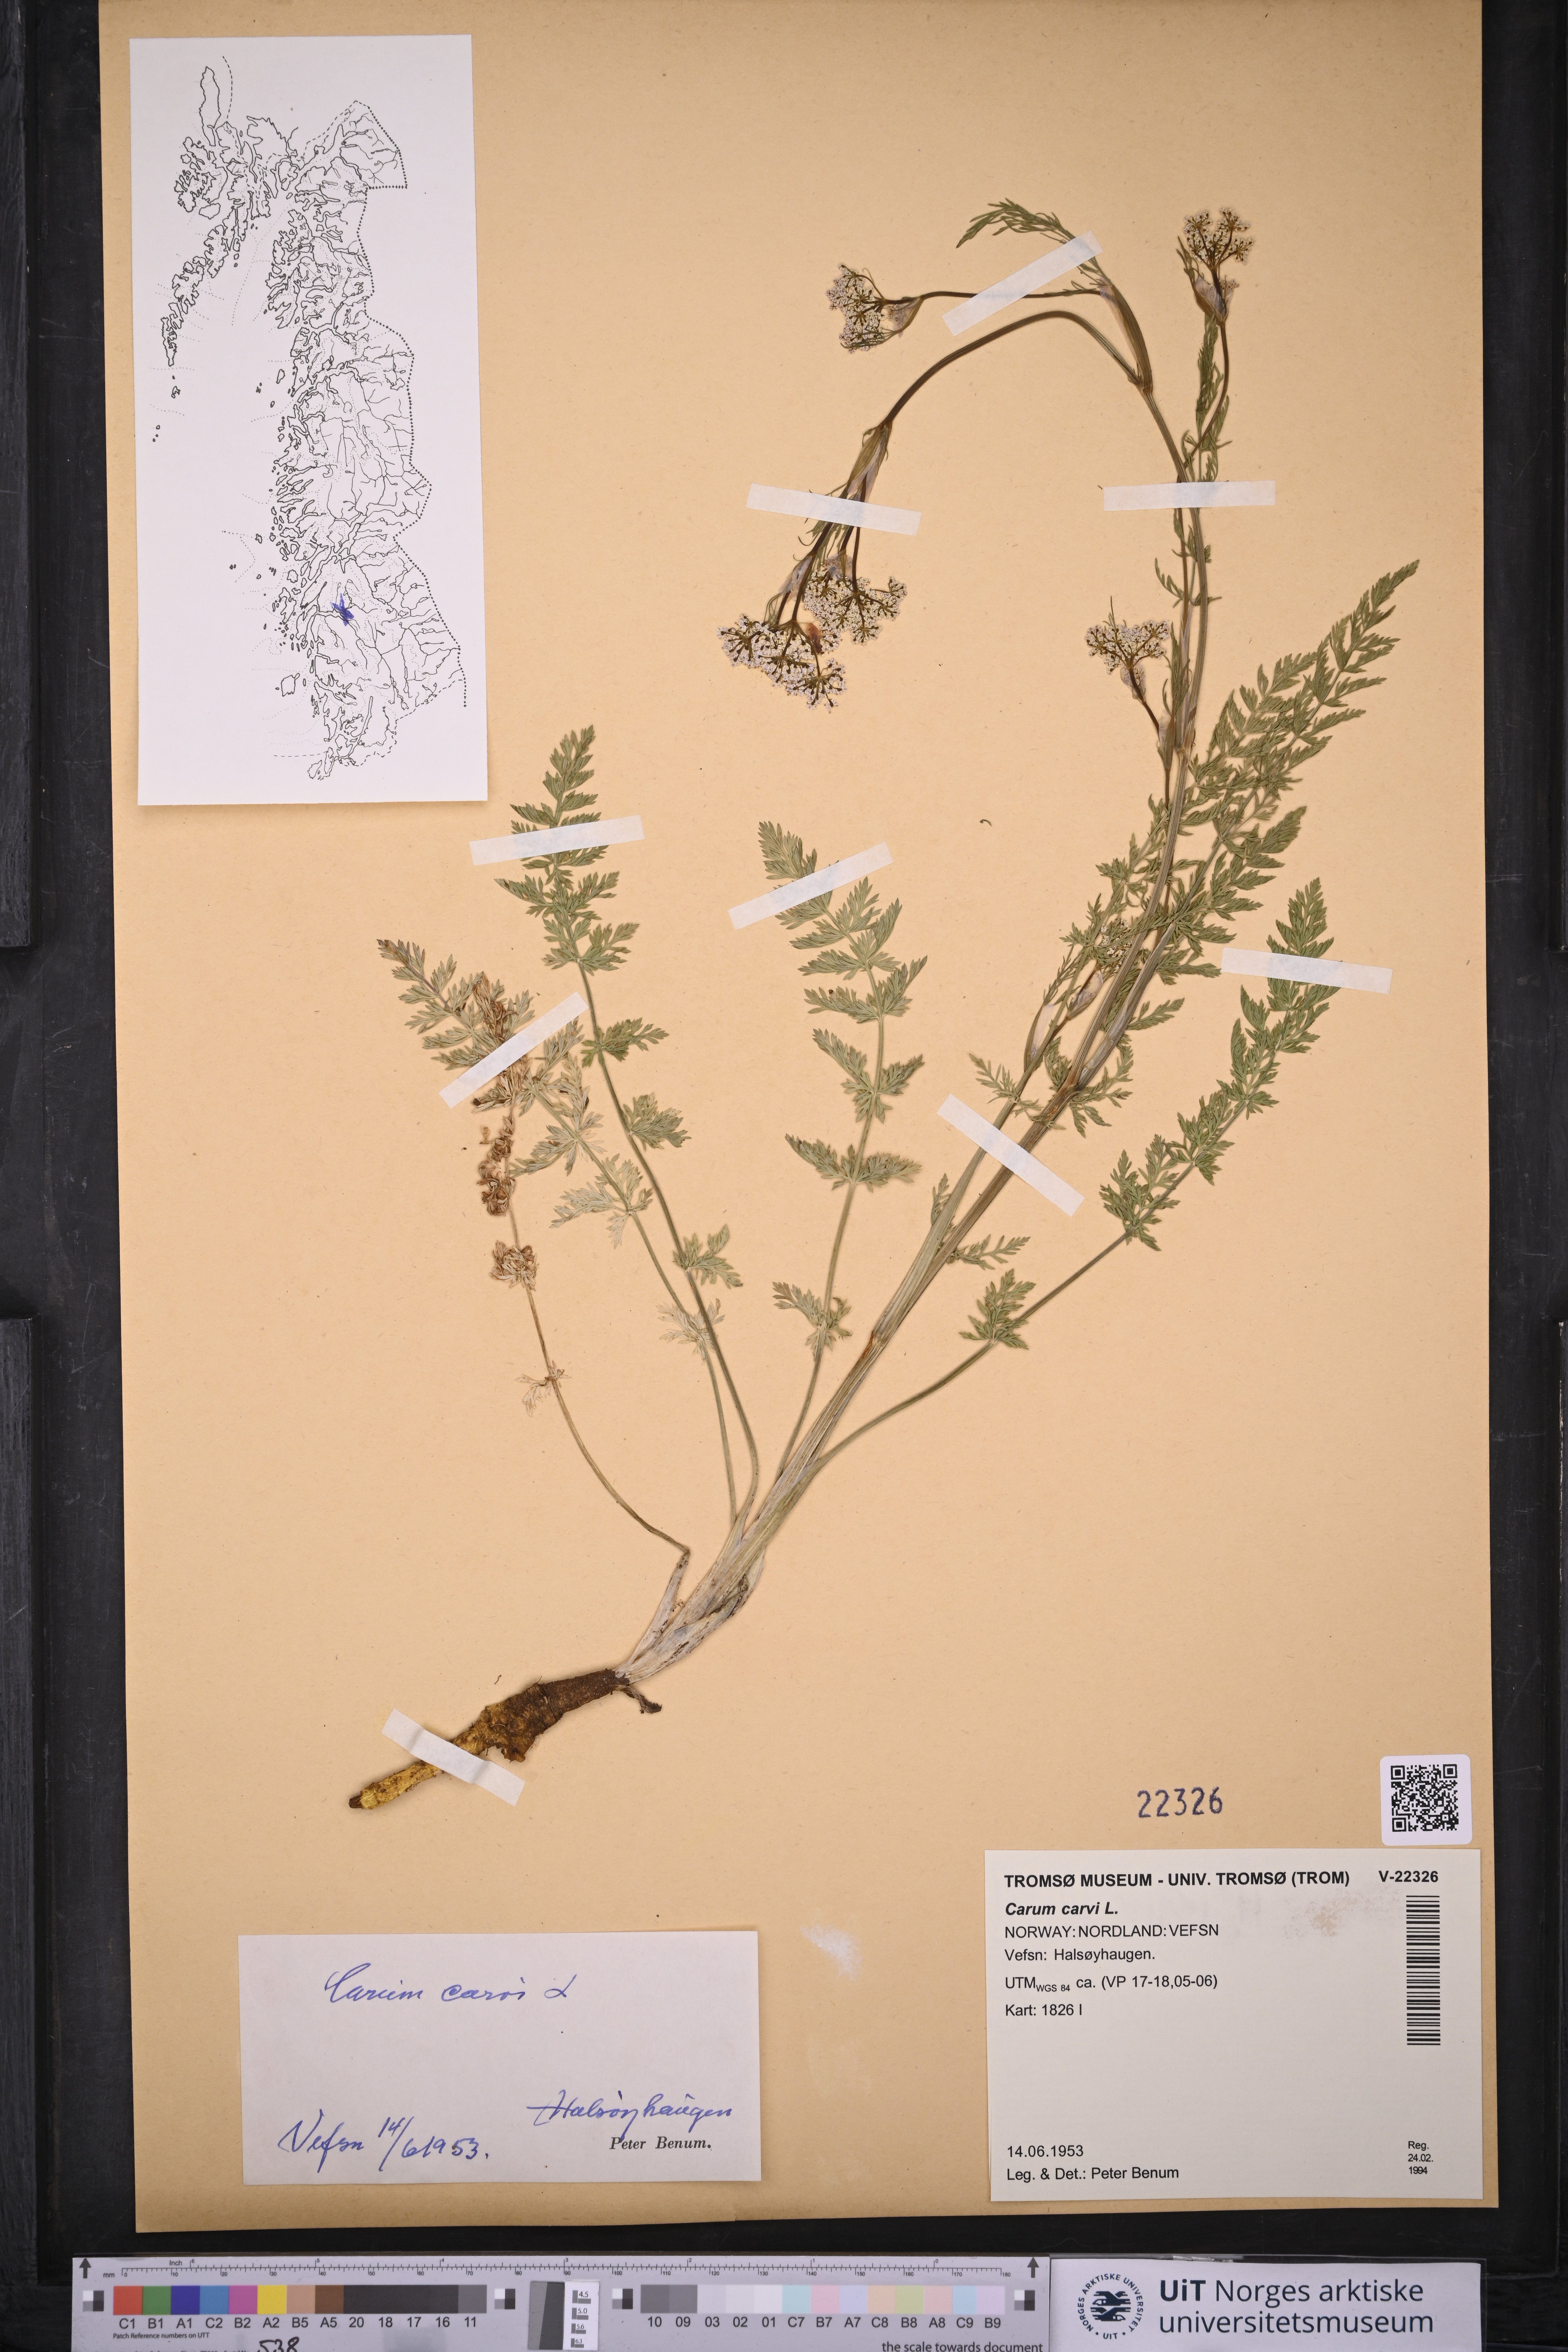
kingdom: Plantae
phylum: Tracheophyta
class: Magnoliopsida
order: Apiales
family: Apiaceae
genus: Carum
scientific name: Carum carvi
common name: Caraway
